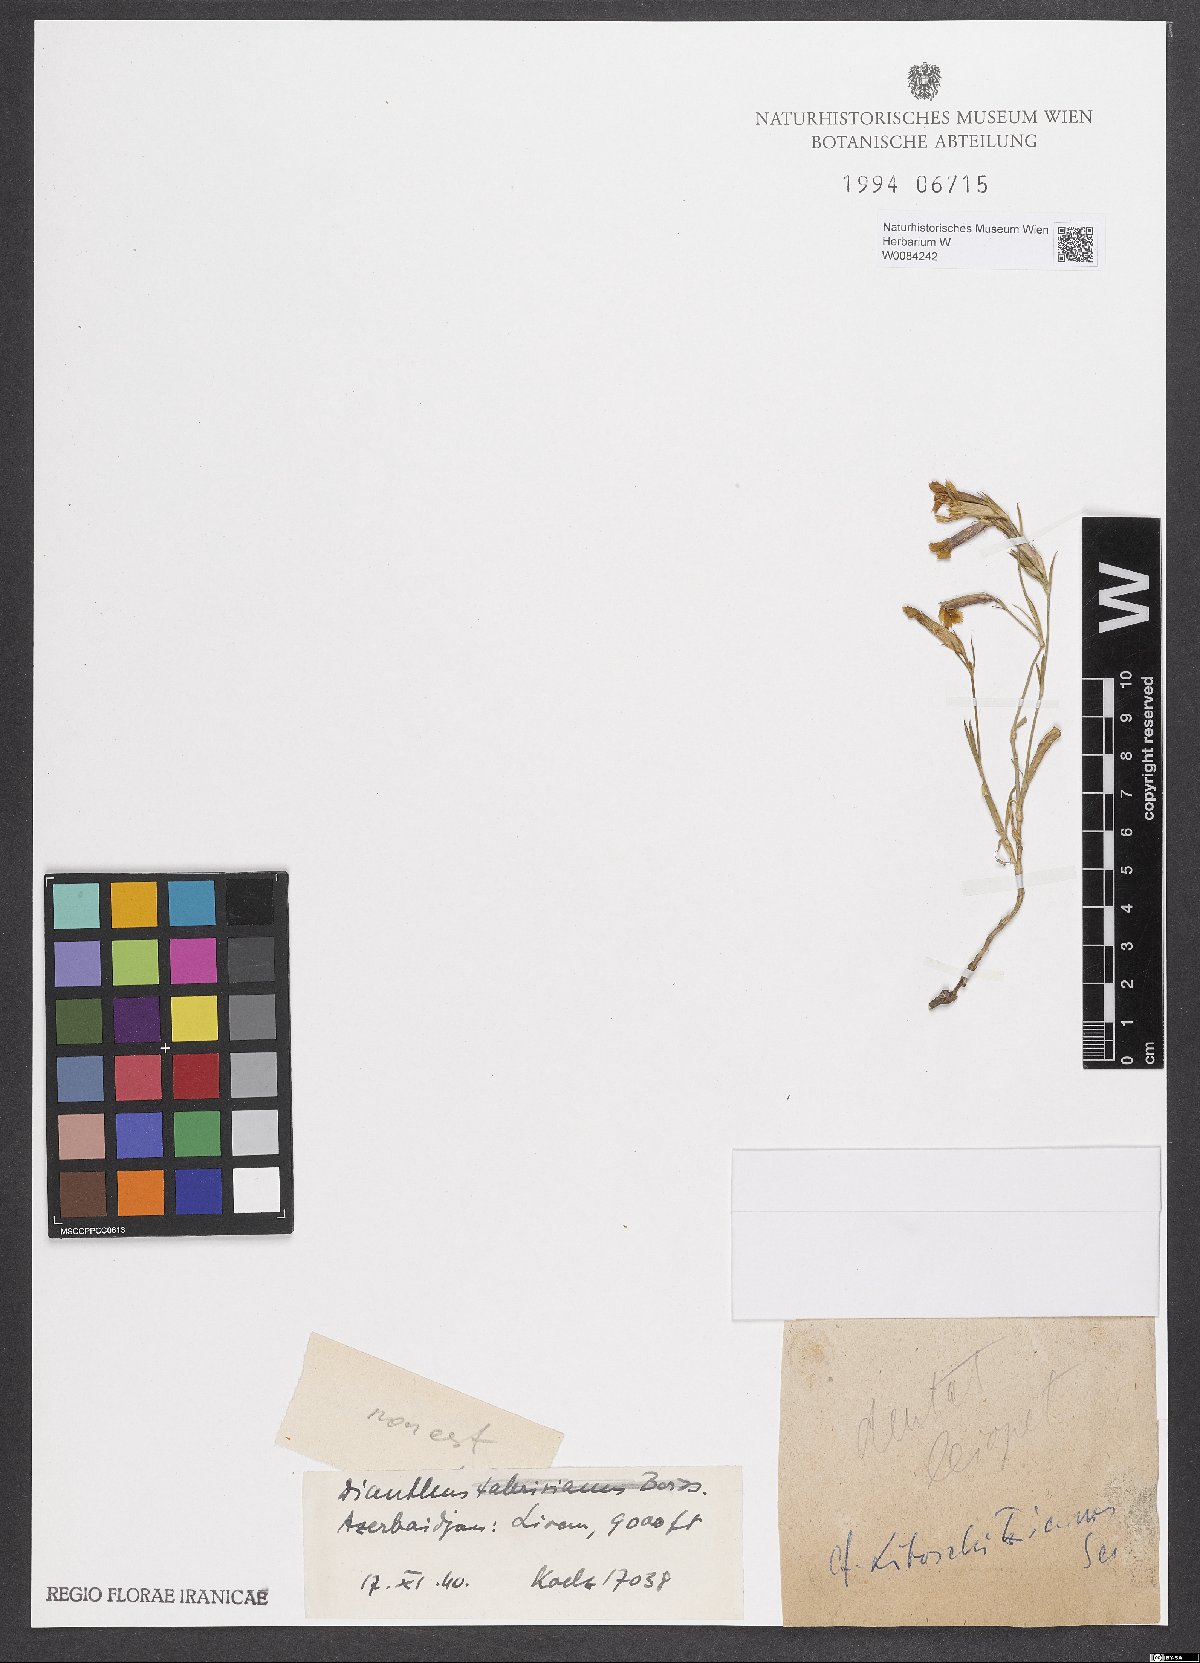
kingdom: Plantae
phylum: Tracheophyta
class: Magnoliopsida
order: Caryophyllales
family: Caryophyllaceae
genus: Dianthus
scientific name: Dianthus cretaceus
